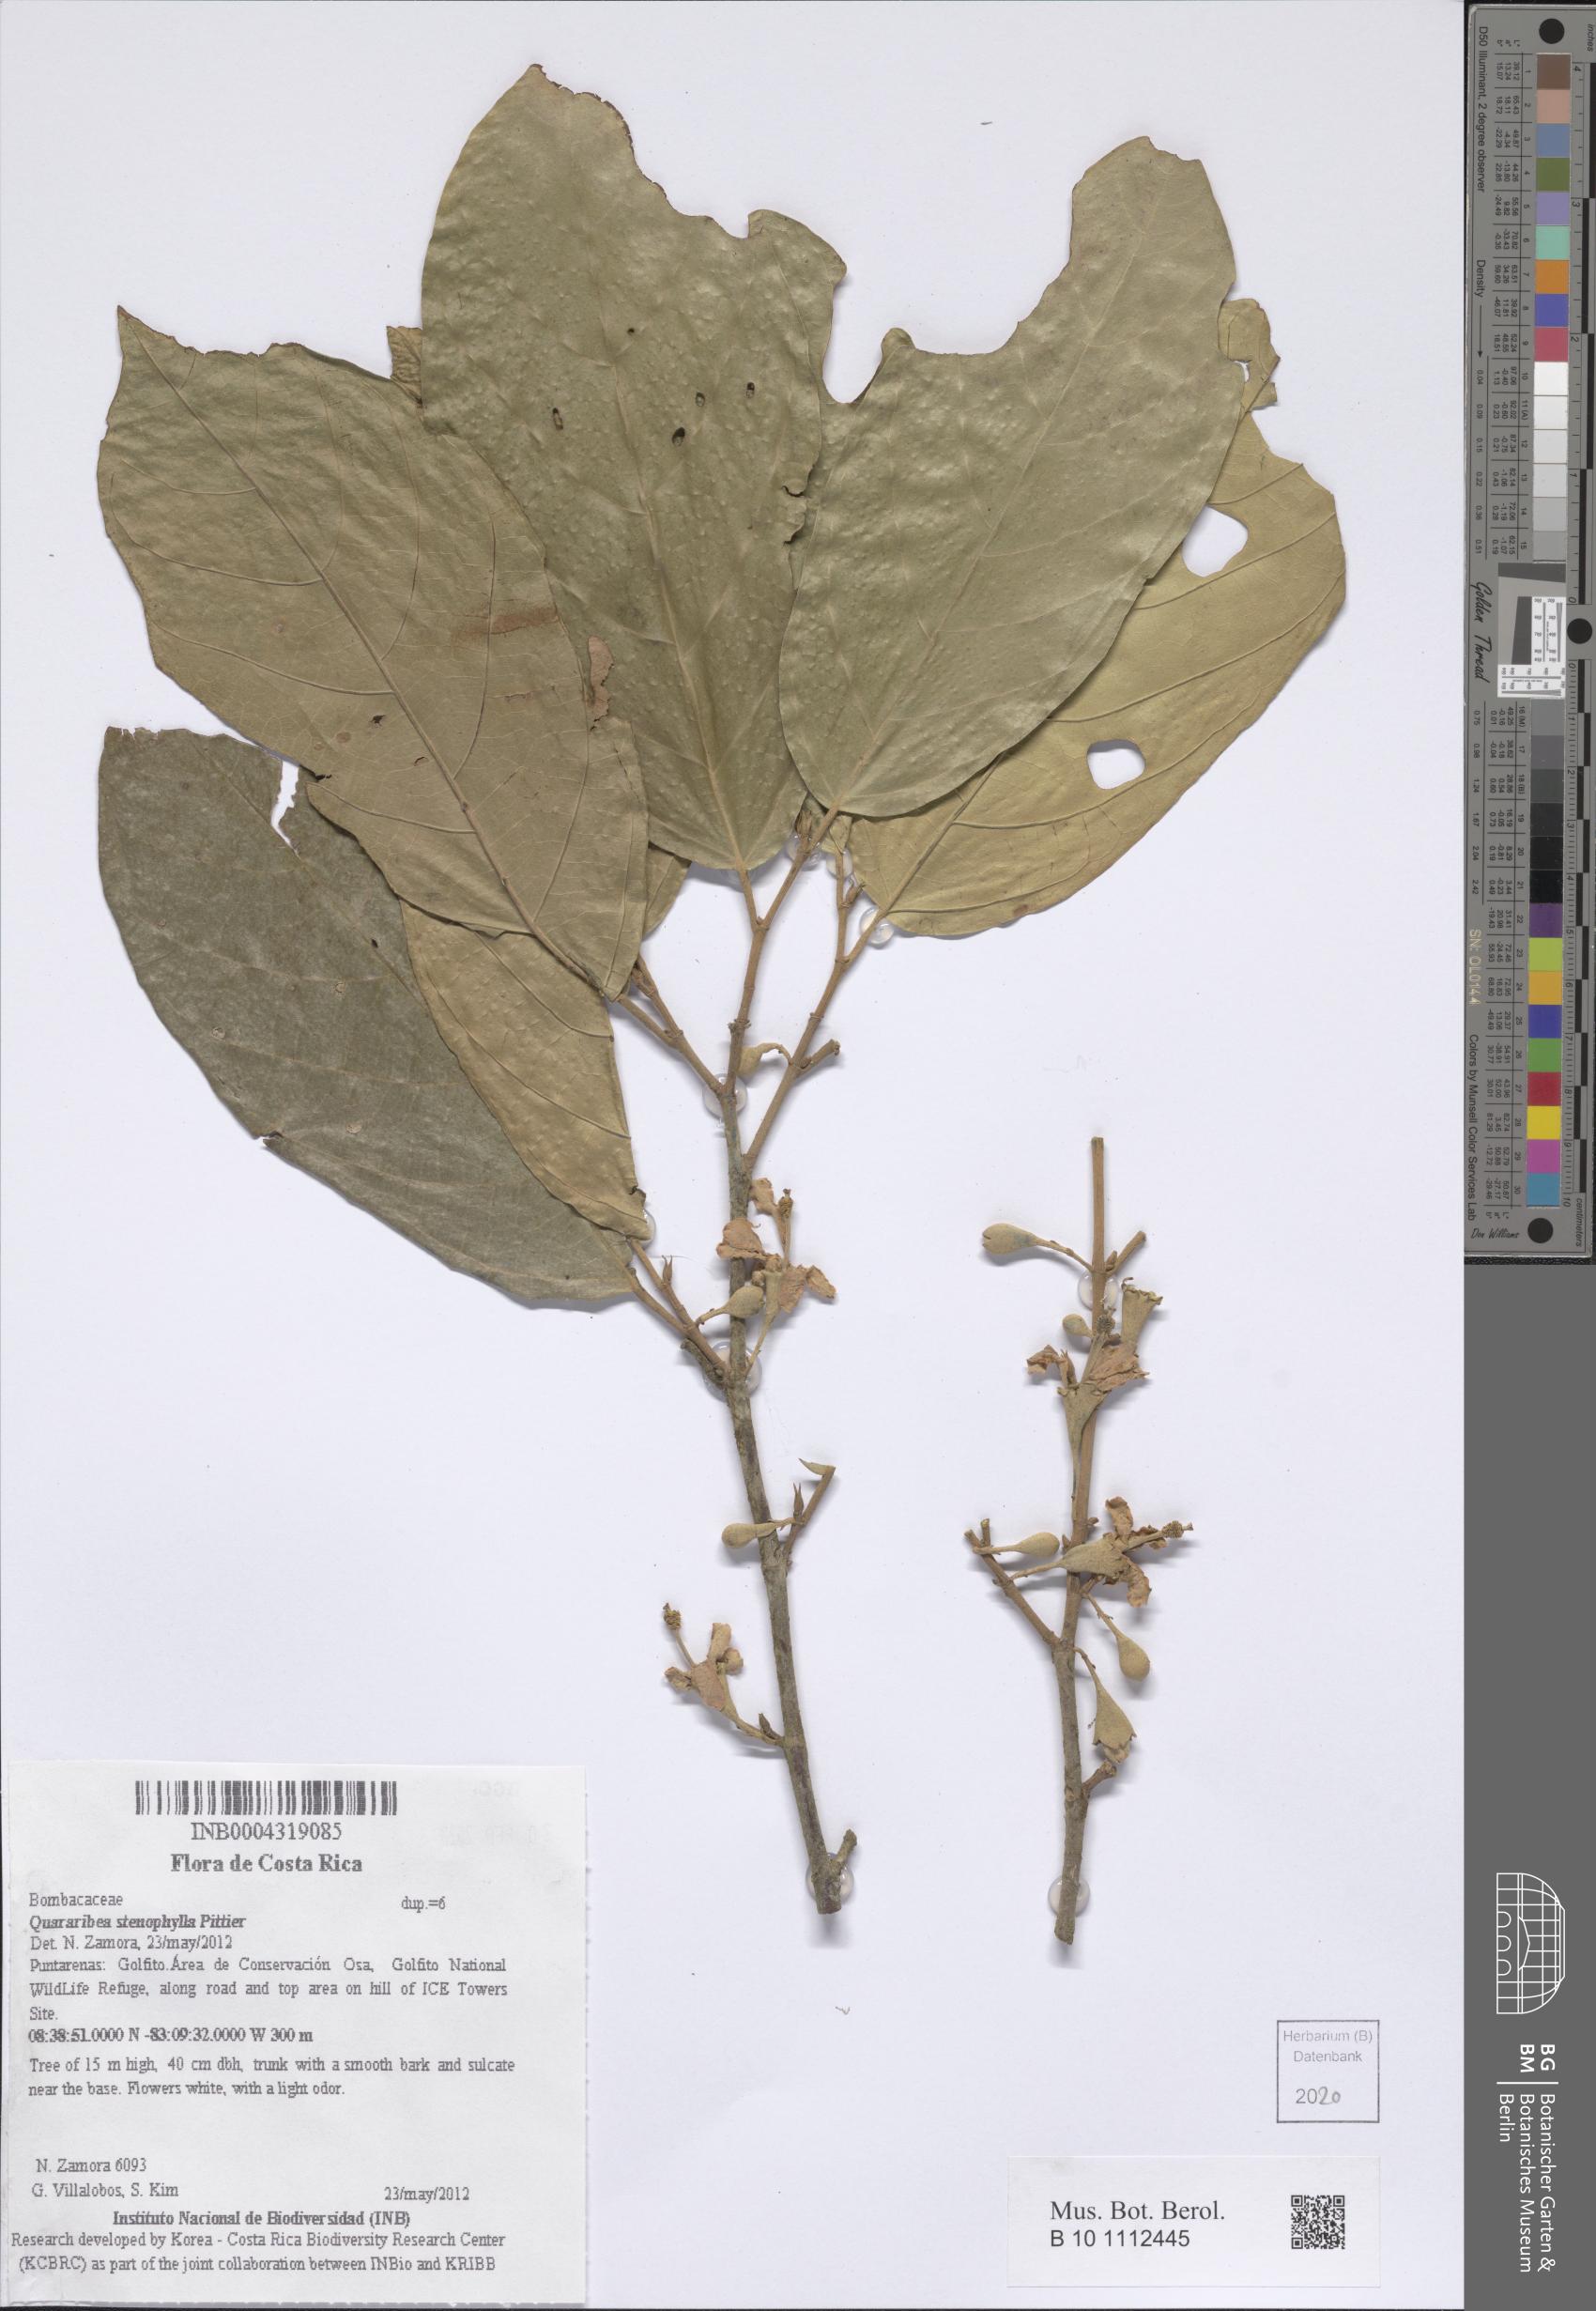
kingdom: Plantae
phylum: Tracheophyta
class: Magnoliopsida
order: Malvales
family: Malvaceae
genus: Quararibea
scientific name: Quararibea stenophylla
